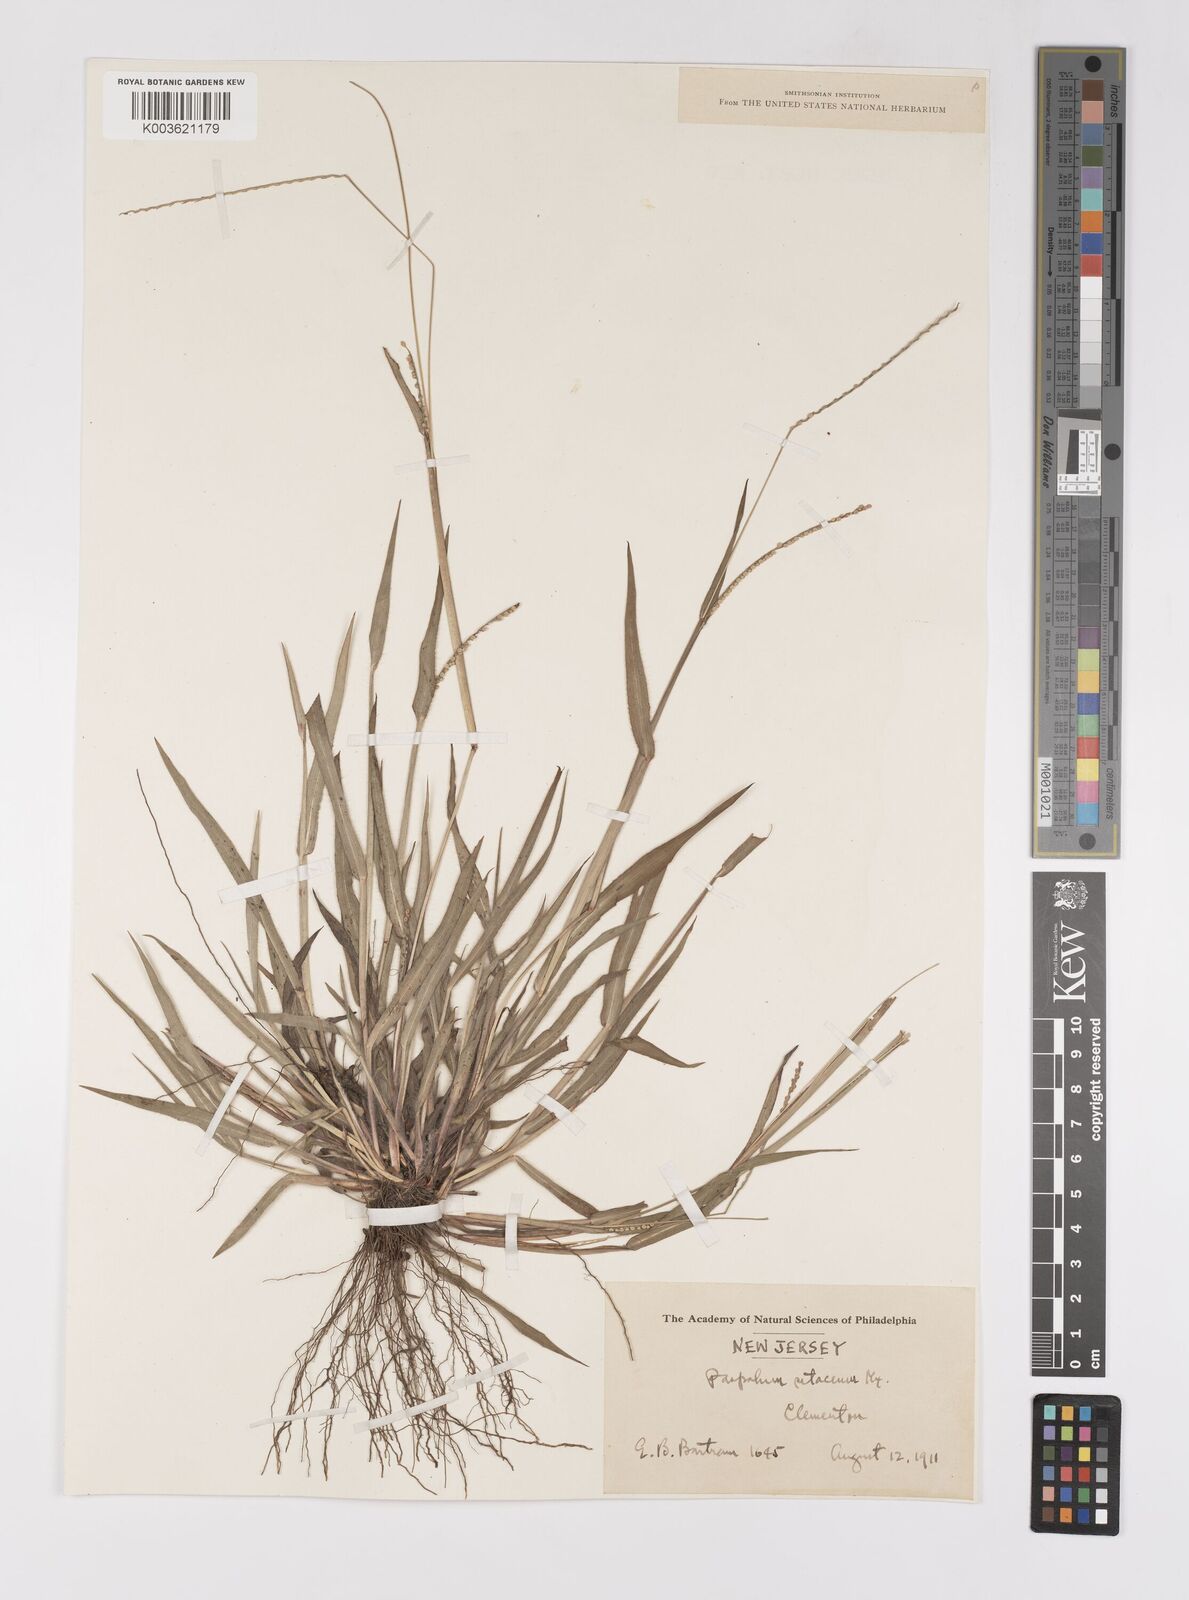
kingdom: Plantae
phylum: Tracheophyta
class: Liliopsida
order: Poales
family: Poaceae
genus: Paspalum
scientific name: Paspalum setaceum
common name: Slender paspalum
